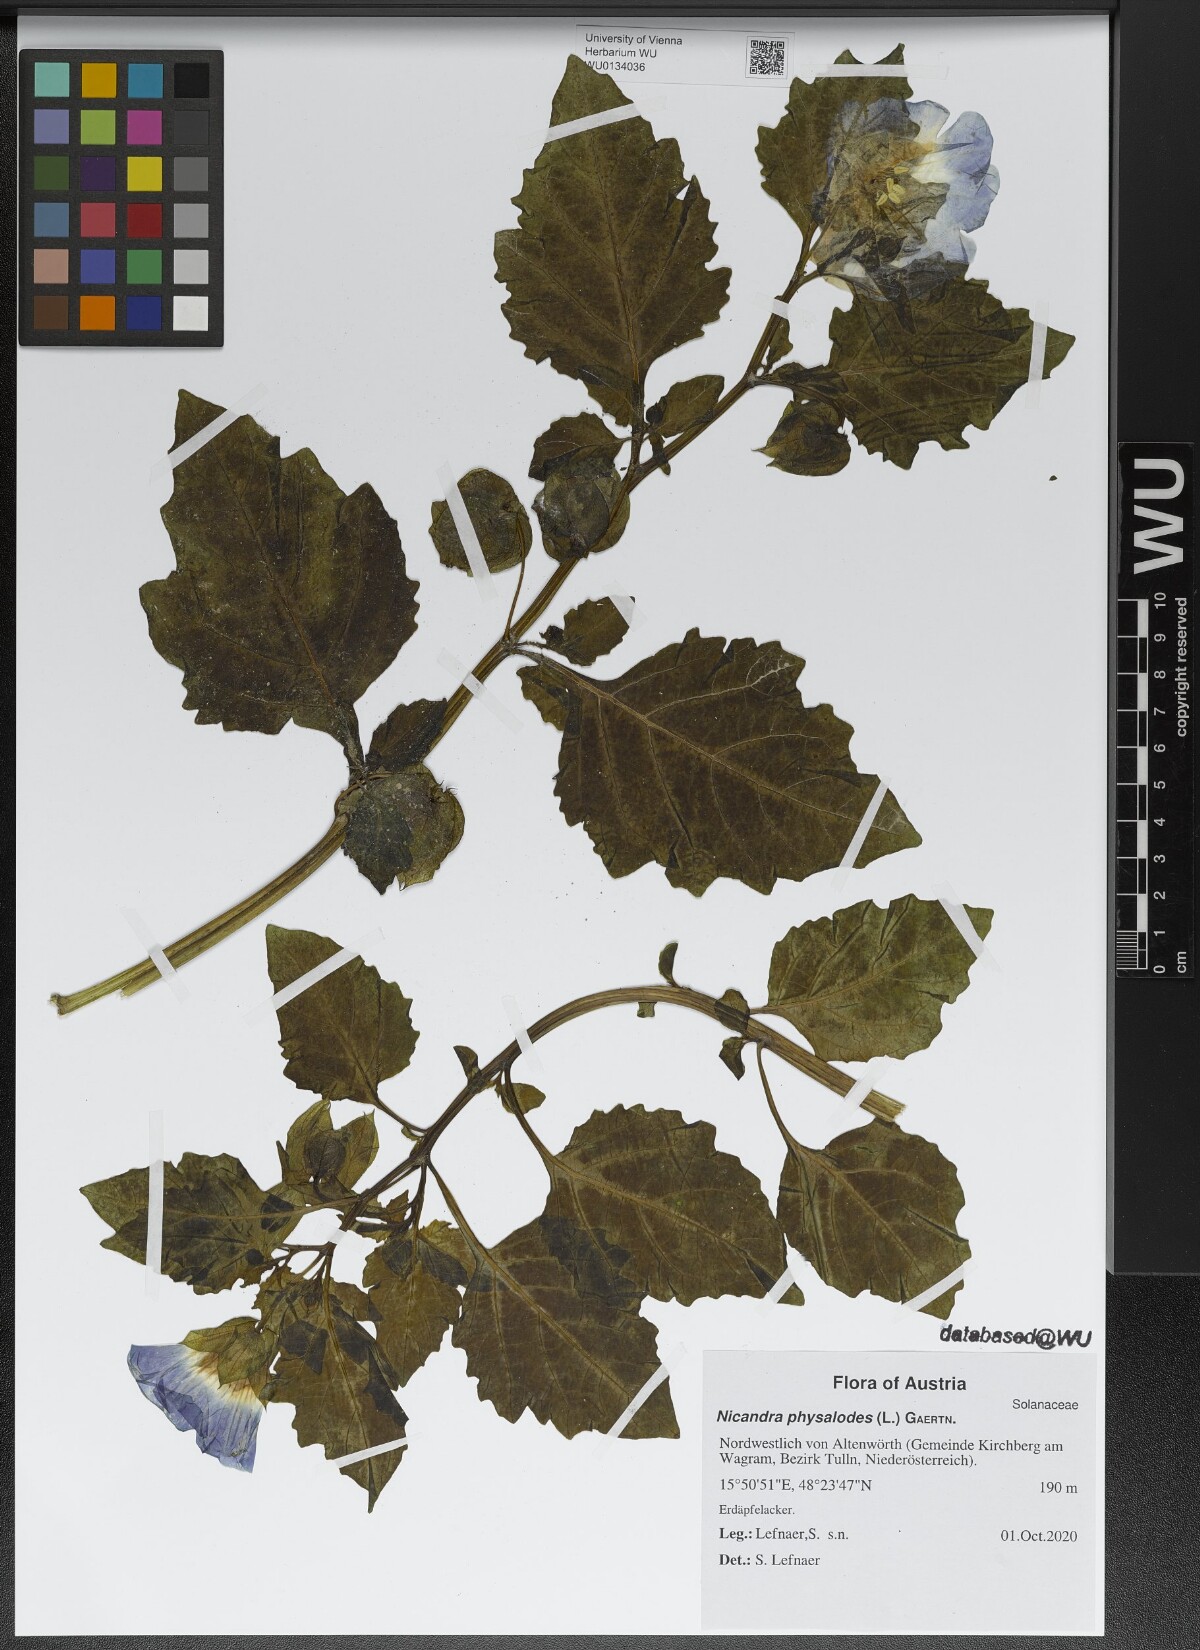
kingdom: Plantae
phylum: Tracheophyta
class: Magnoliopsida
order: Solanales
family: Solanaceae
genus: Nicandra
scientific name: Nicandra physalodes
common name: Apple-of-peru
